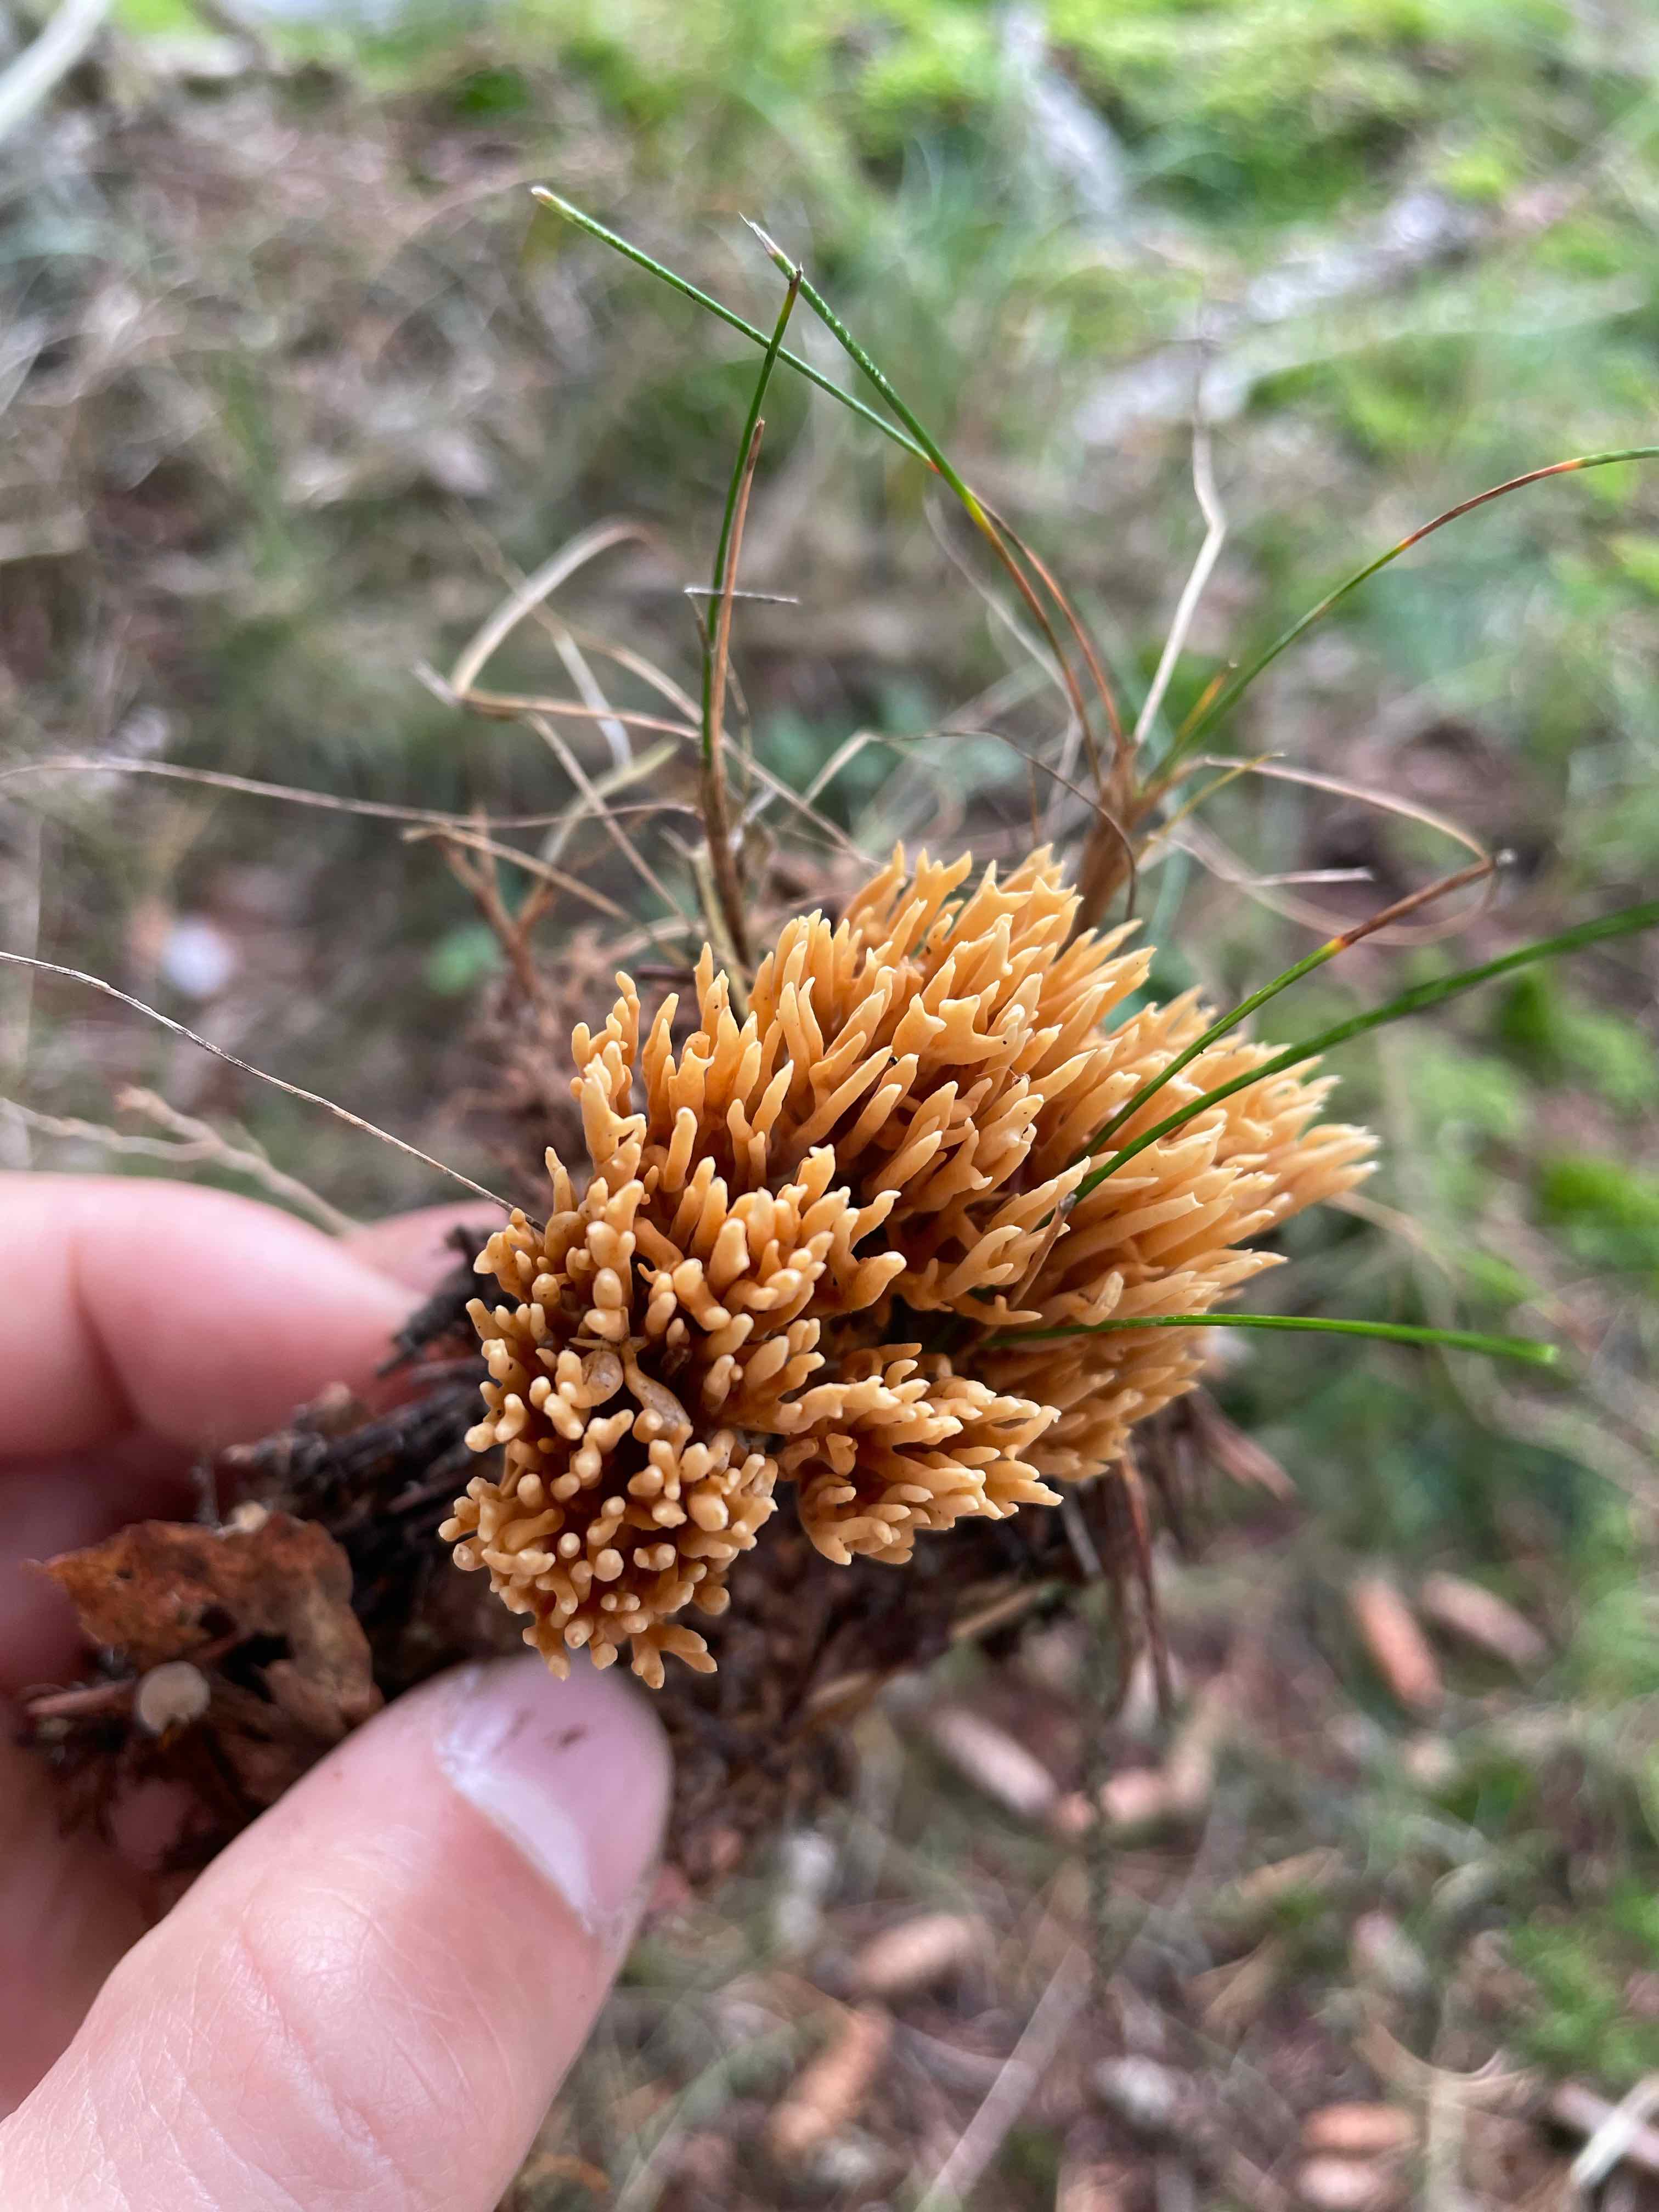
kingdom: Fungi
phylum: Basidiomycota
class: Agaricomycetes
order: Gomphales
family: Gomphaceae
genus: Phaeoclavulina
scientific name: Phaeoclavulina eumorpha
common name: gran-koralsvamp
